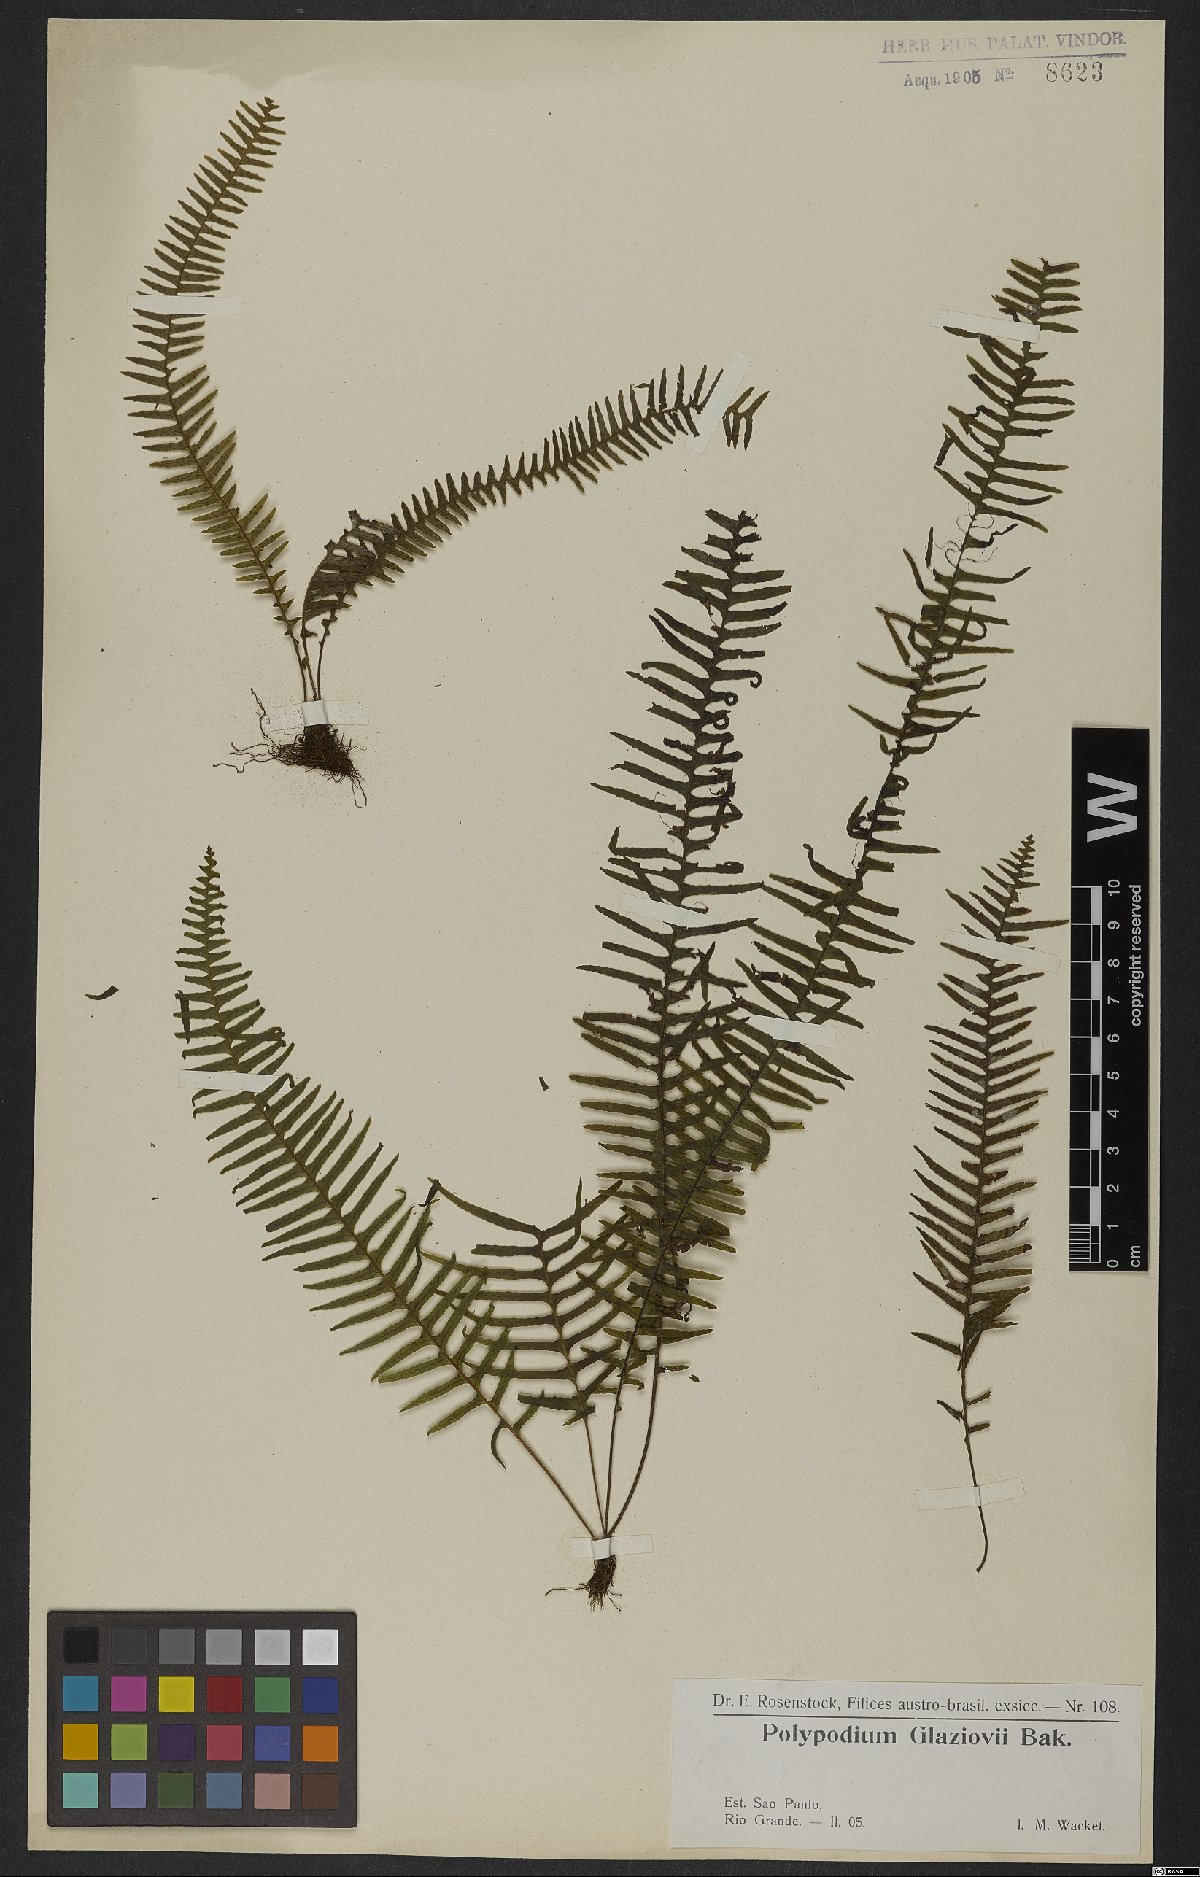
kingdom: Plantae
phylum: Tracheophyta
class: Polypodiopsida
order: Polypodiales
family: Polypodiaceae
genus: Ceradenia
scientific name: Ceradenia glaziovii
